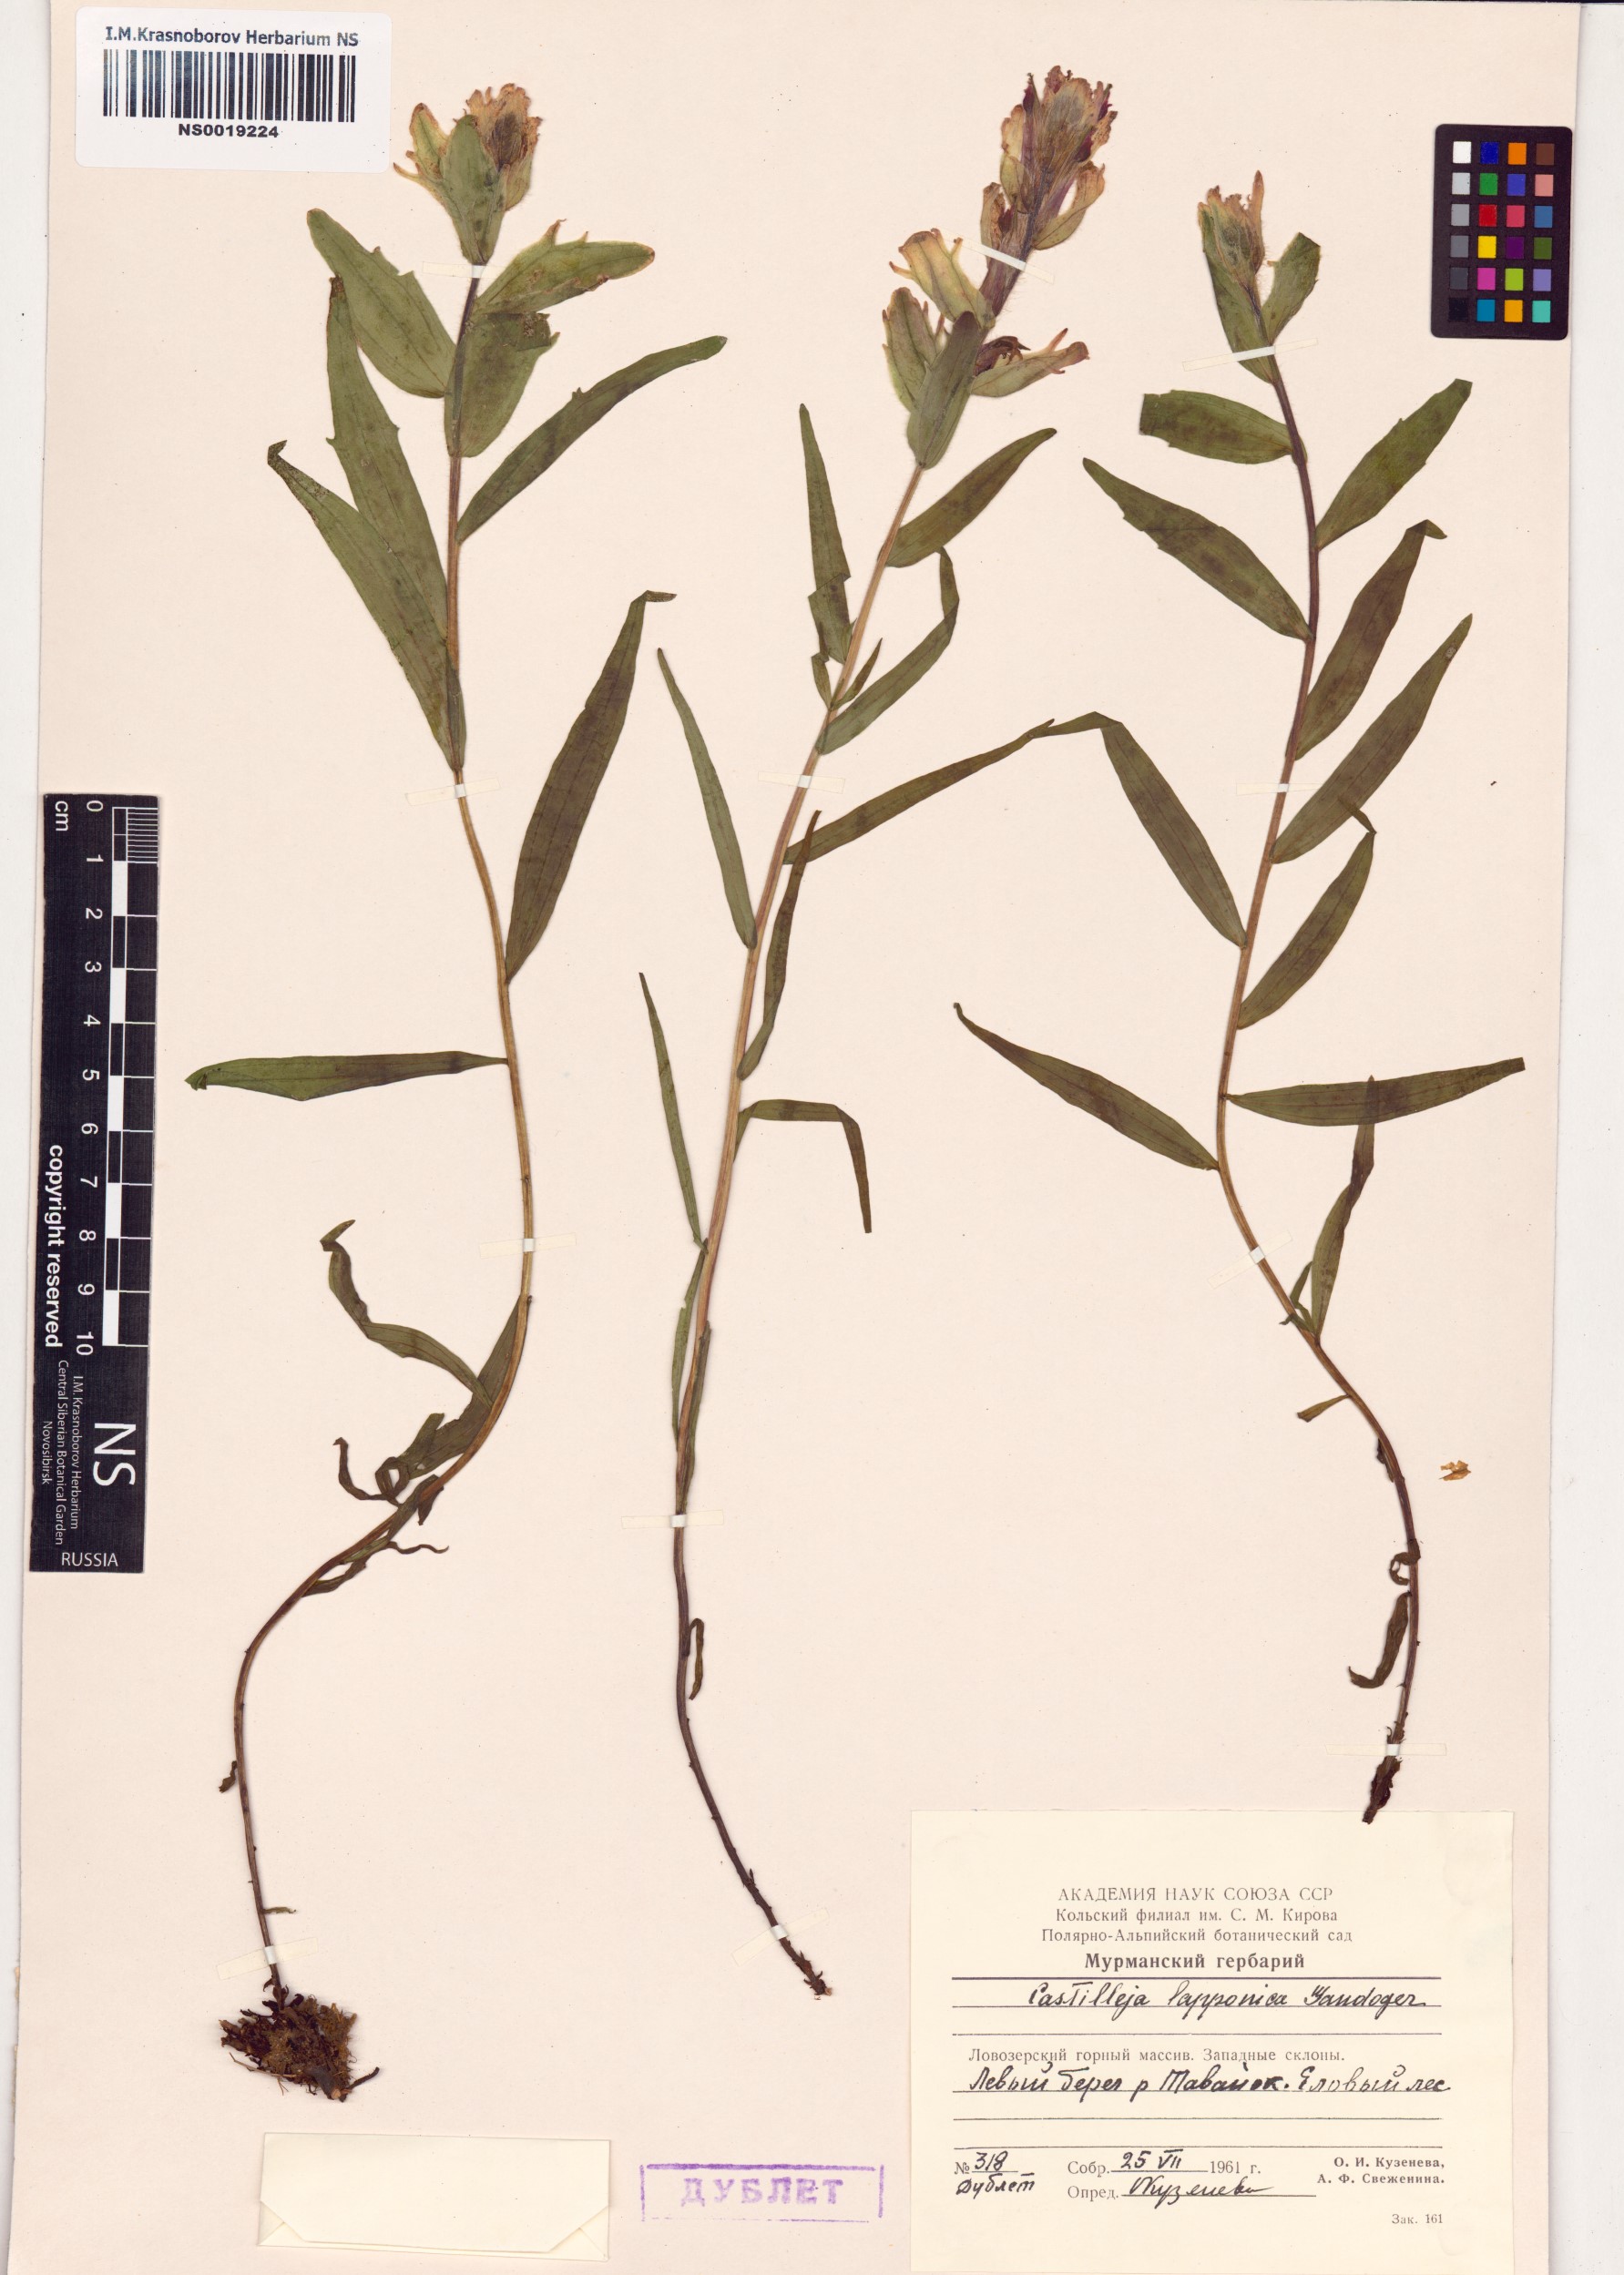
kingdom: Plantae
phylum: Tracheophyta
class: Magnoliopsida
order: Lamiales
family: Orobanchaceae
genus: Castilleja
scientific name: Castilleja lapponica
